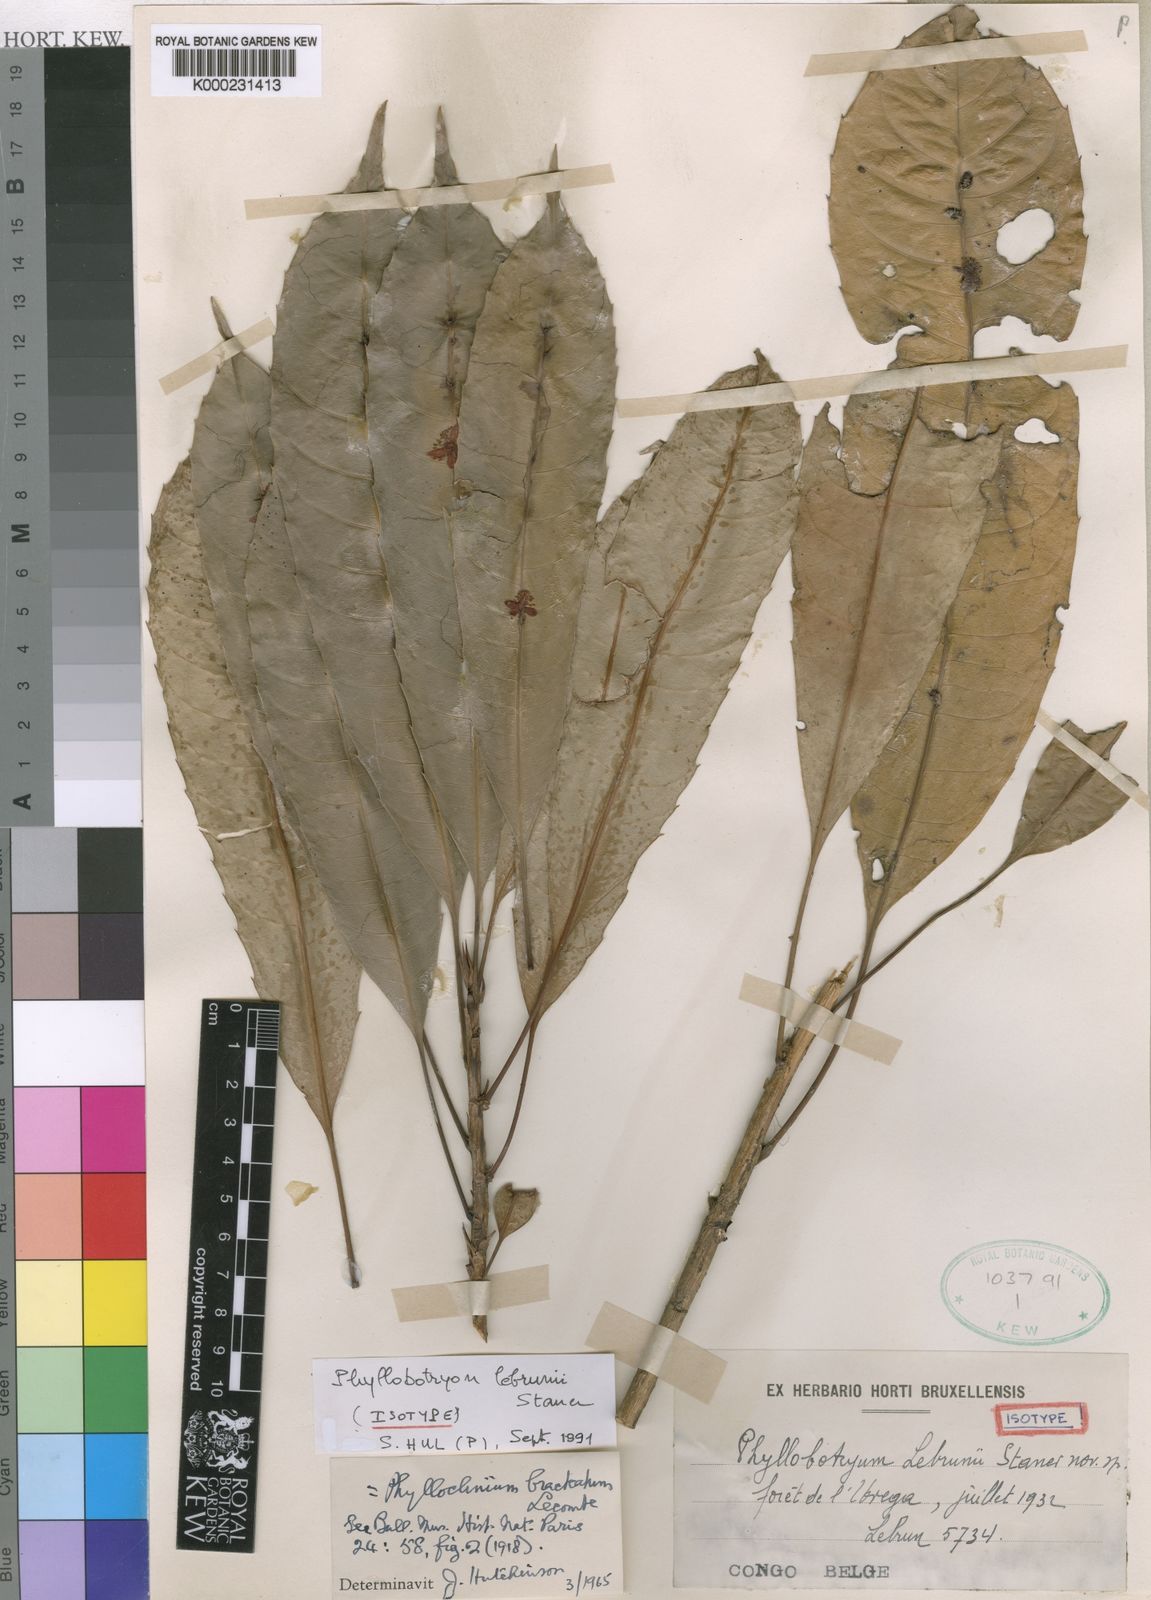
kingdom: Plantae
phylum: Tracheophyta
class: Magnoliopsida
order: Malpighiales
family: Salicaceae
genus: Phyllobotryon
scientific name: Phyllobotryon lebrunii
